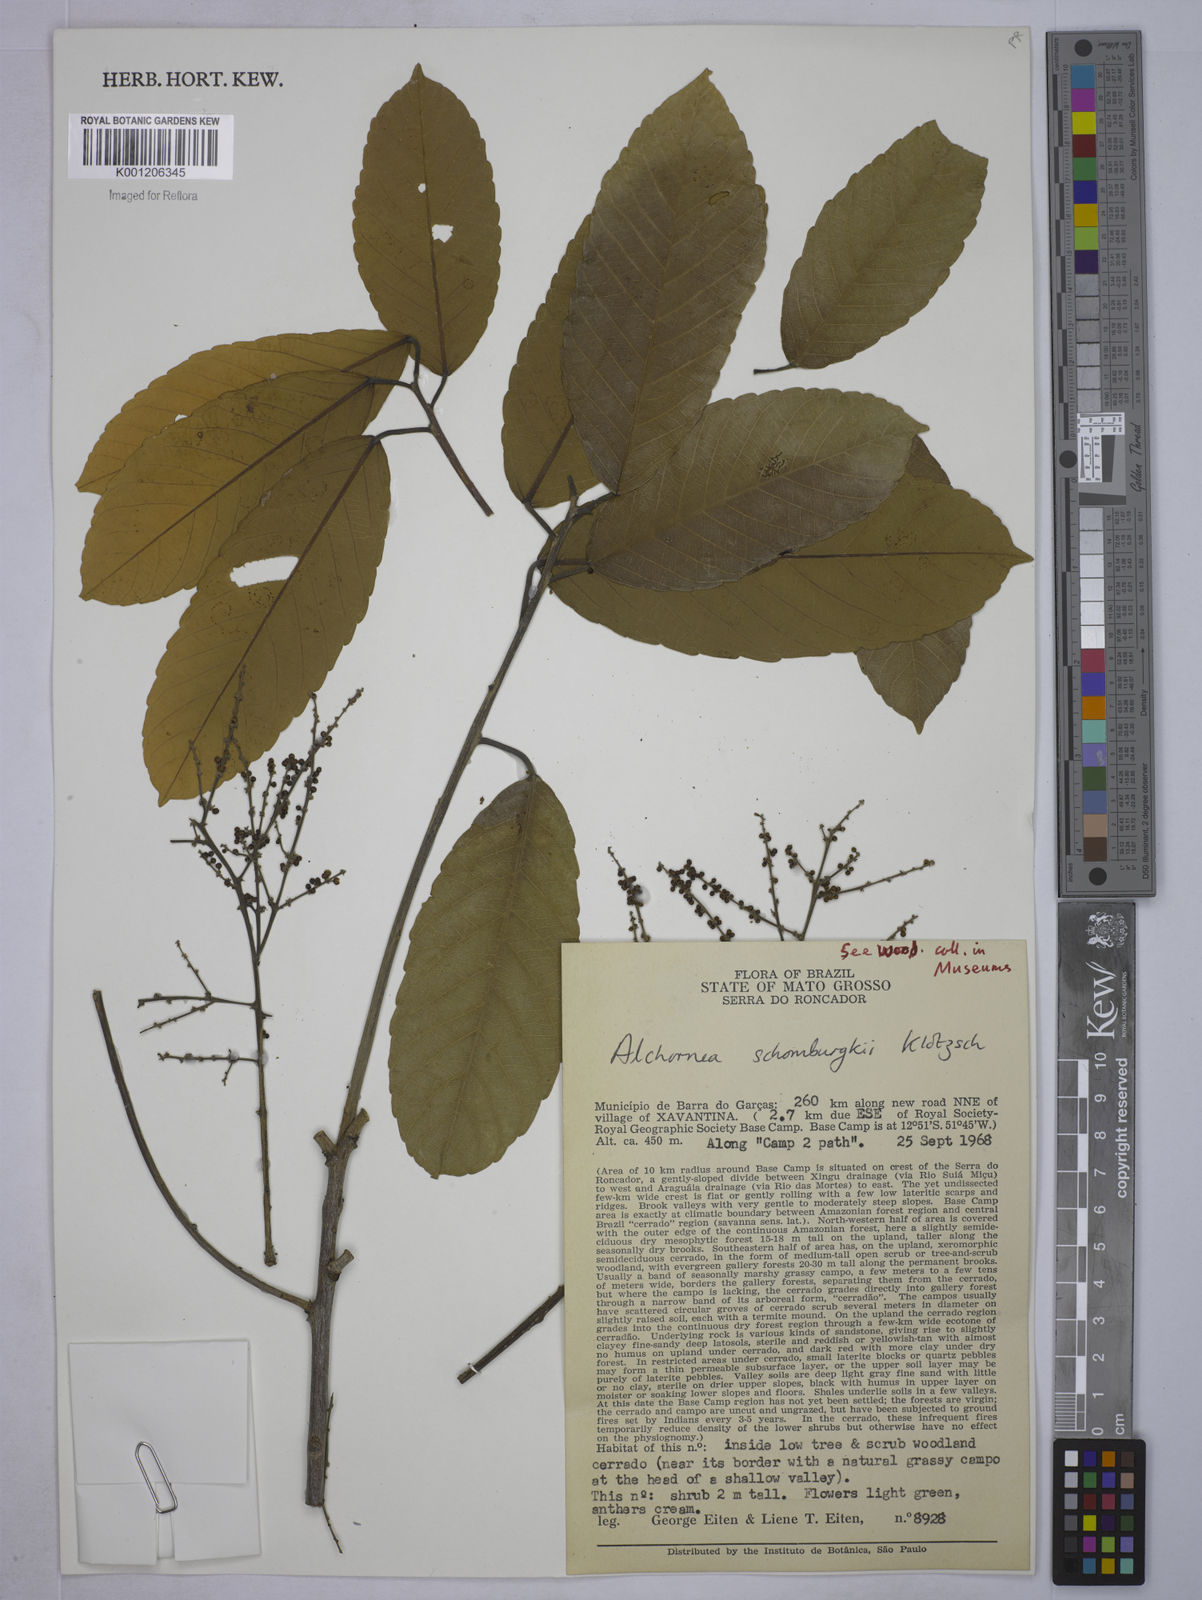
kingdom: Plantae
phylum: Tracheophyta
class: Magnoliopsida
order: Malpighiales
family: Euphorbiaceae
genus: Alchornea
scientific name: Alchornea discolor
